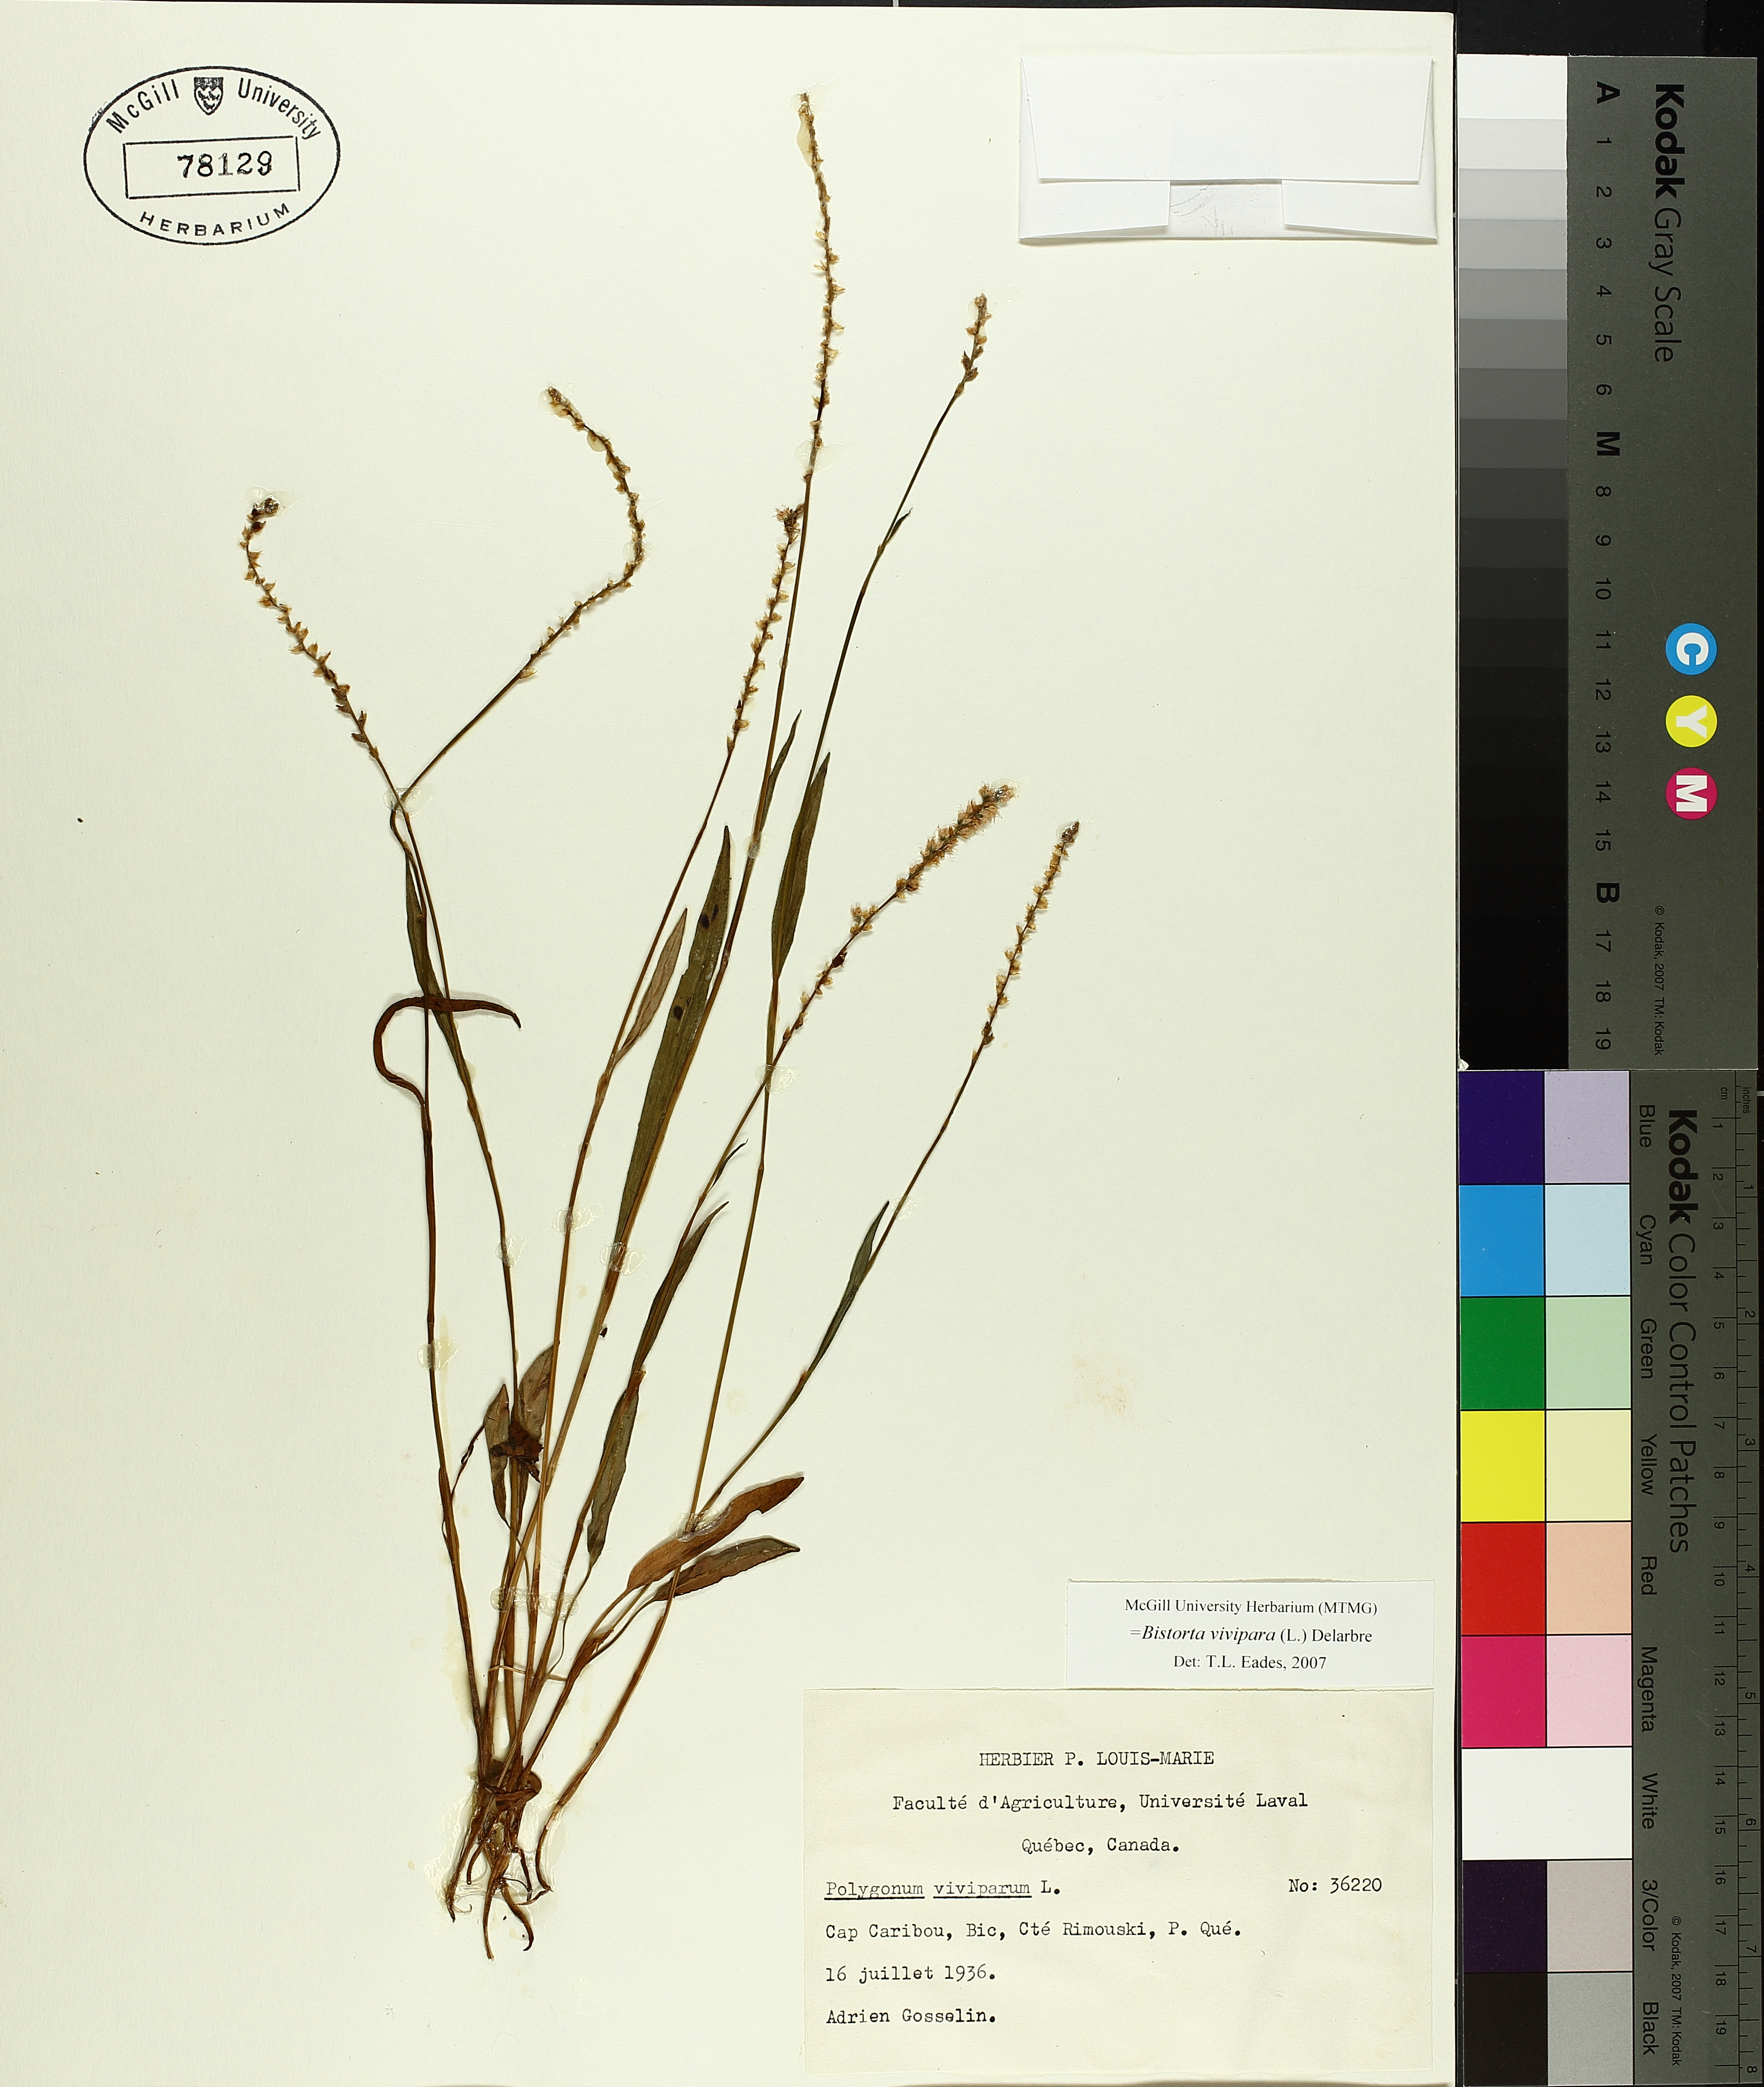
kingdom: Plantae
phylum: Tracheophyta
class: Magnoliopsida
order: Caryophyllales
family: Polygonaceae
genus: Bistorta
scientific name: Bistorta vivipara
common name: Alpine bistort
